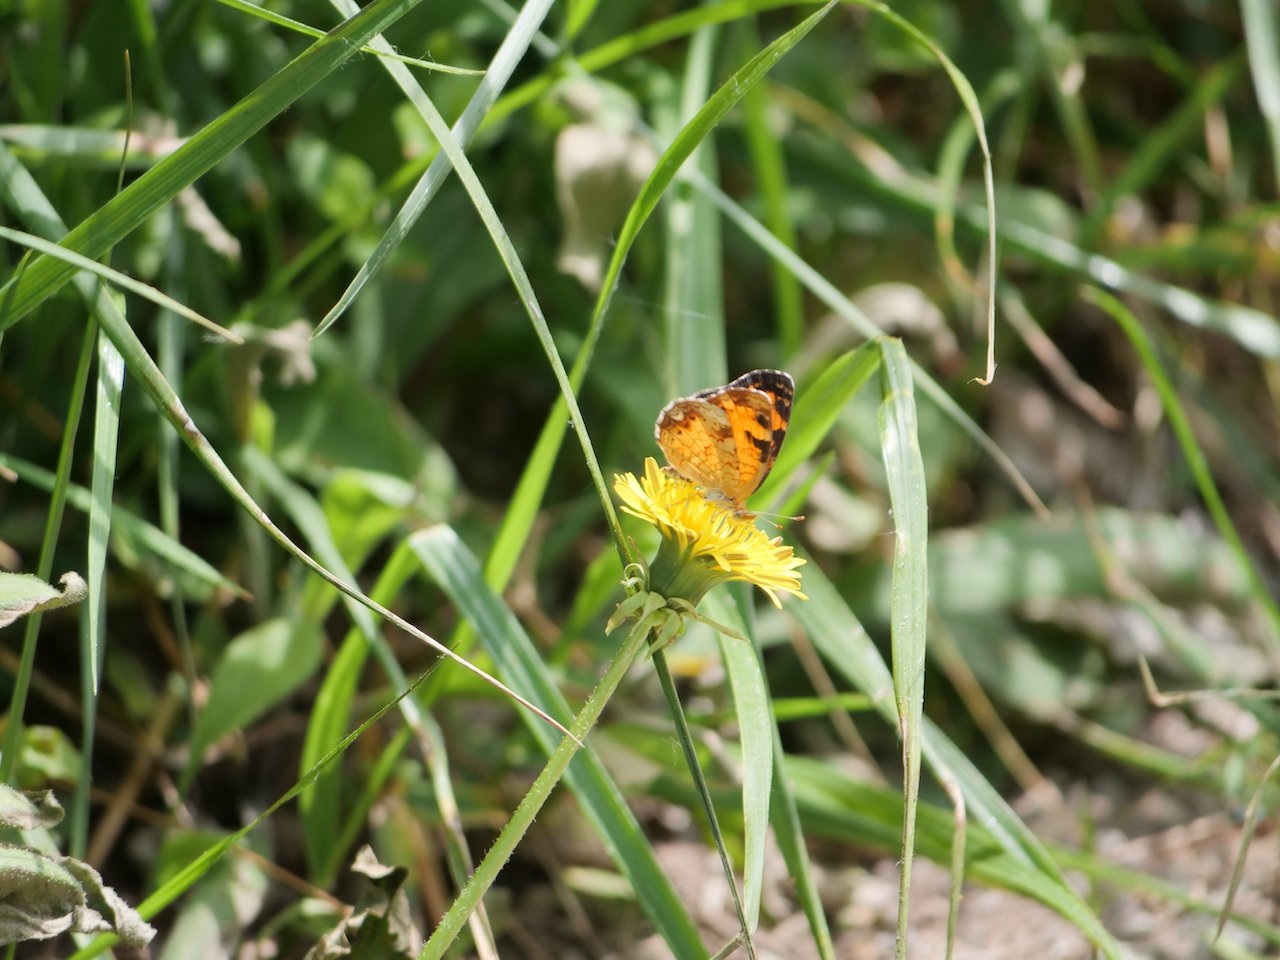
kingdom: Animalia
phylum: Arthropoda
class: Insecta
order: Lepidoptera
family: Nymphalidae
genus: Phyciodes
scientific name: Phyciodes tharos
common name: Northern Crescent
